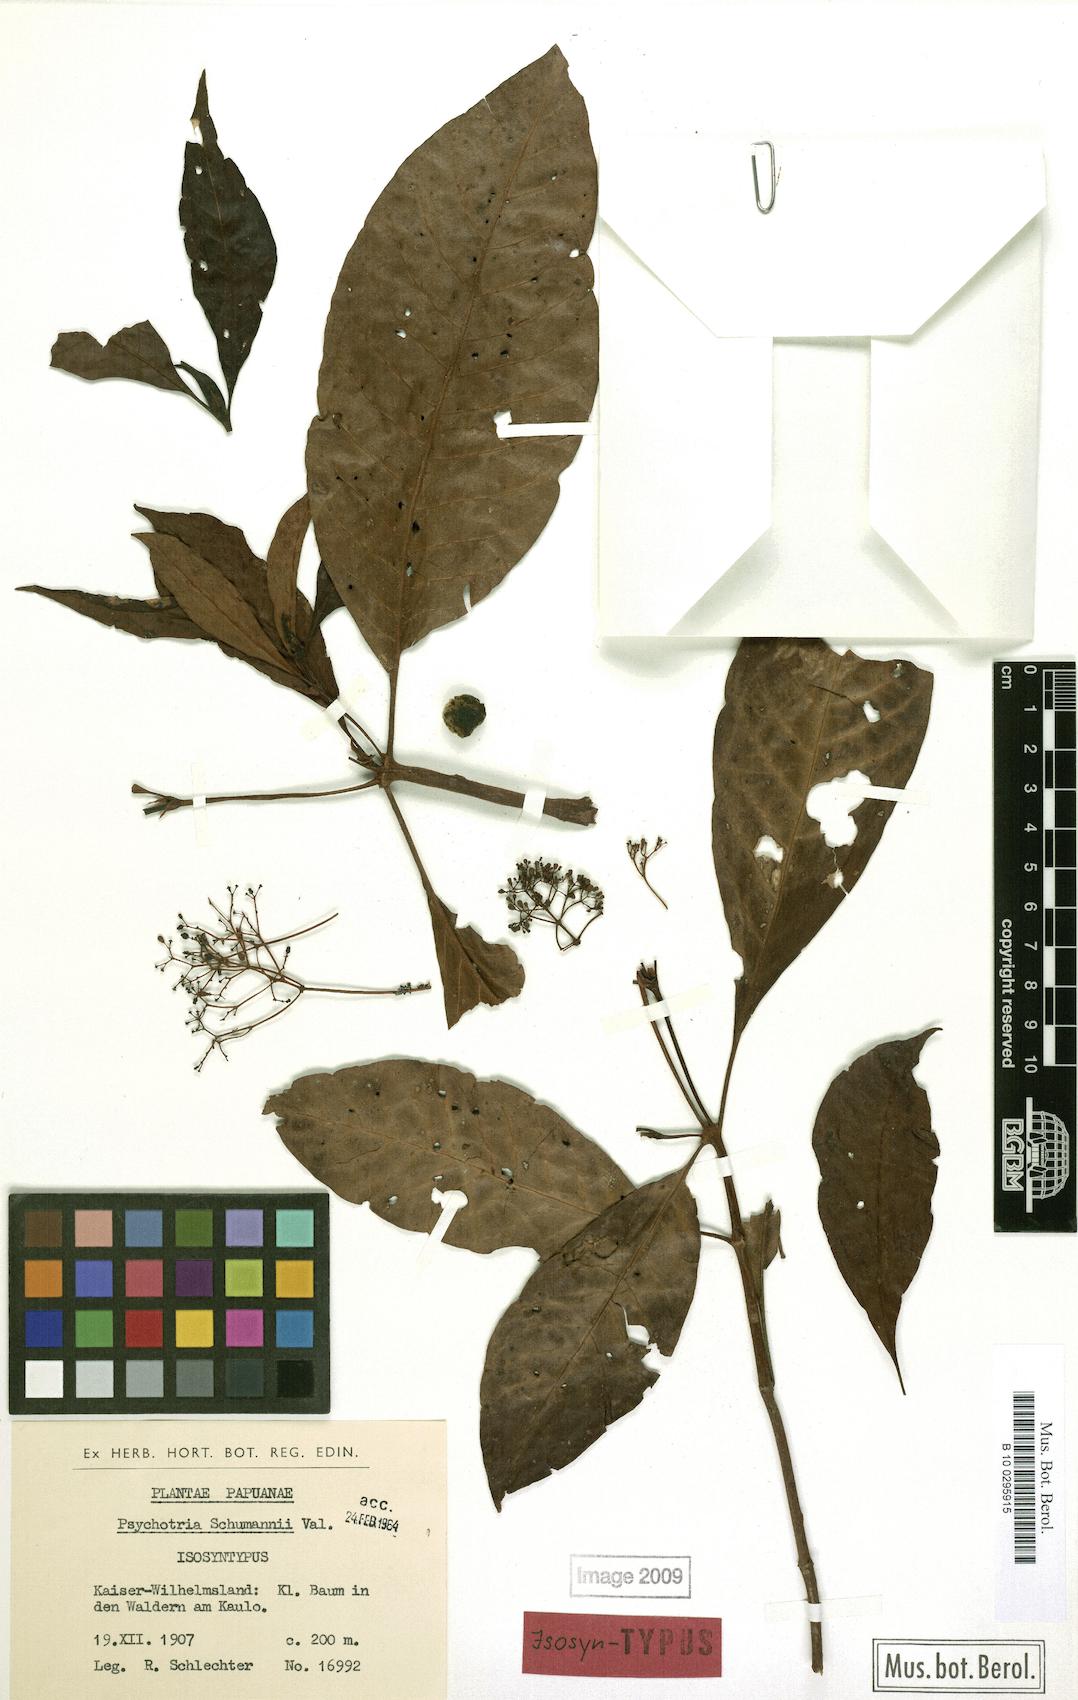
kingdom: Plantae
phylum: Tracheophyta
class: Magnoliopsida
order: Gentianales
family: Rubiaceae
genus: Psychotria
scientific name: Psychotria micrococca
